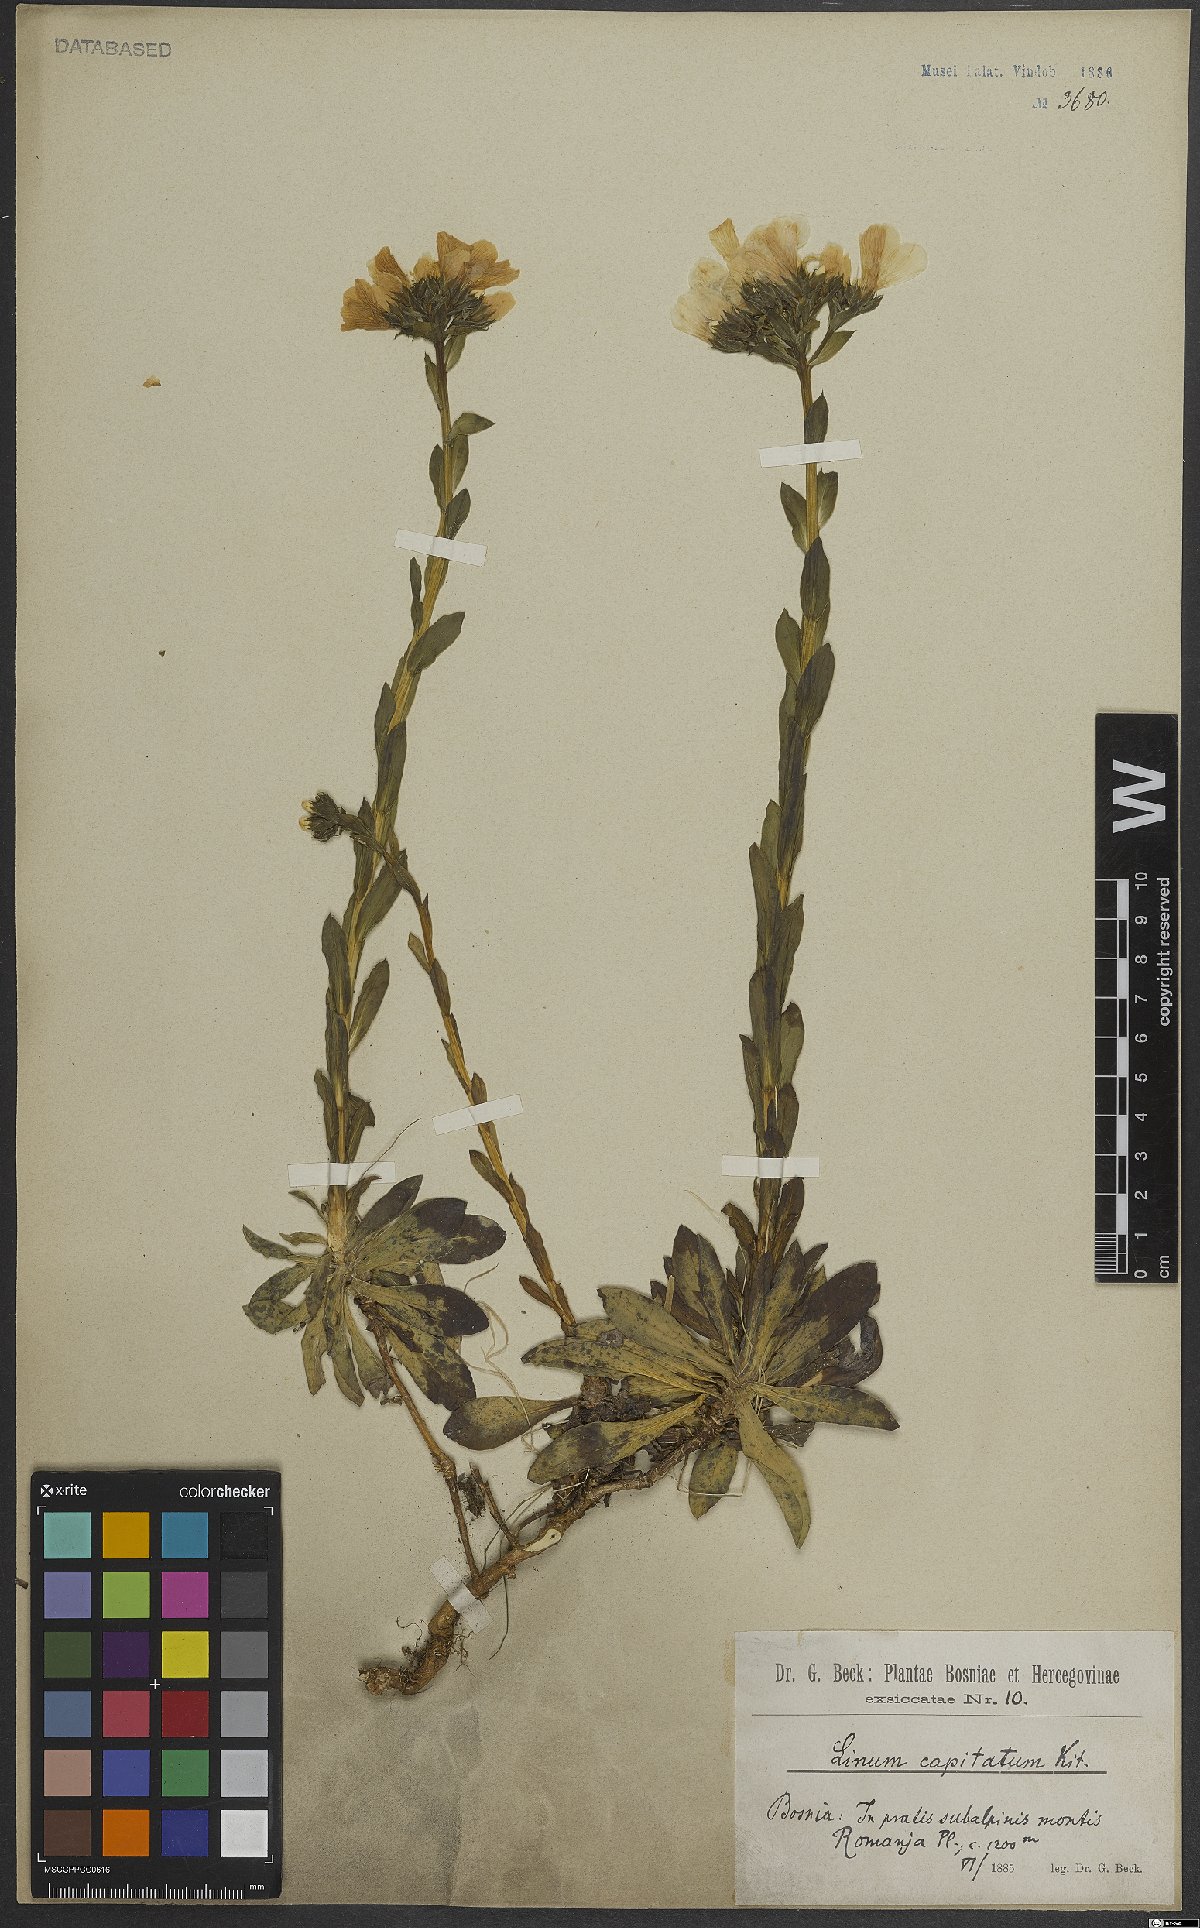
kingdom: Plantae
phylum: Tracheophyta
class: Magnoliopsida
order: Malpighiales
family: Linaceae
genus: Linum
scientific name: Linum capitatum
